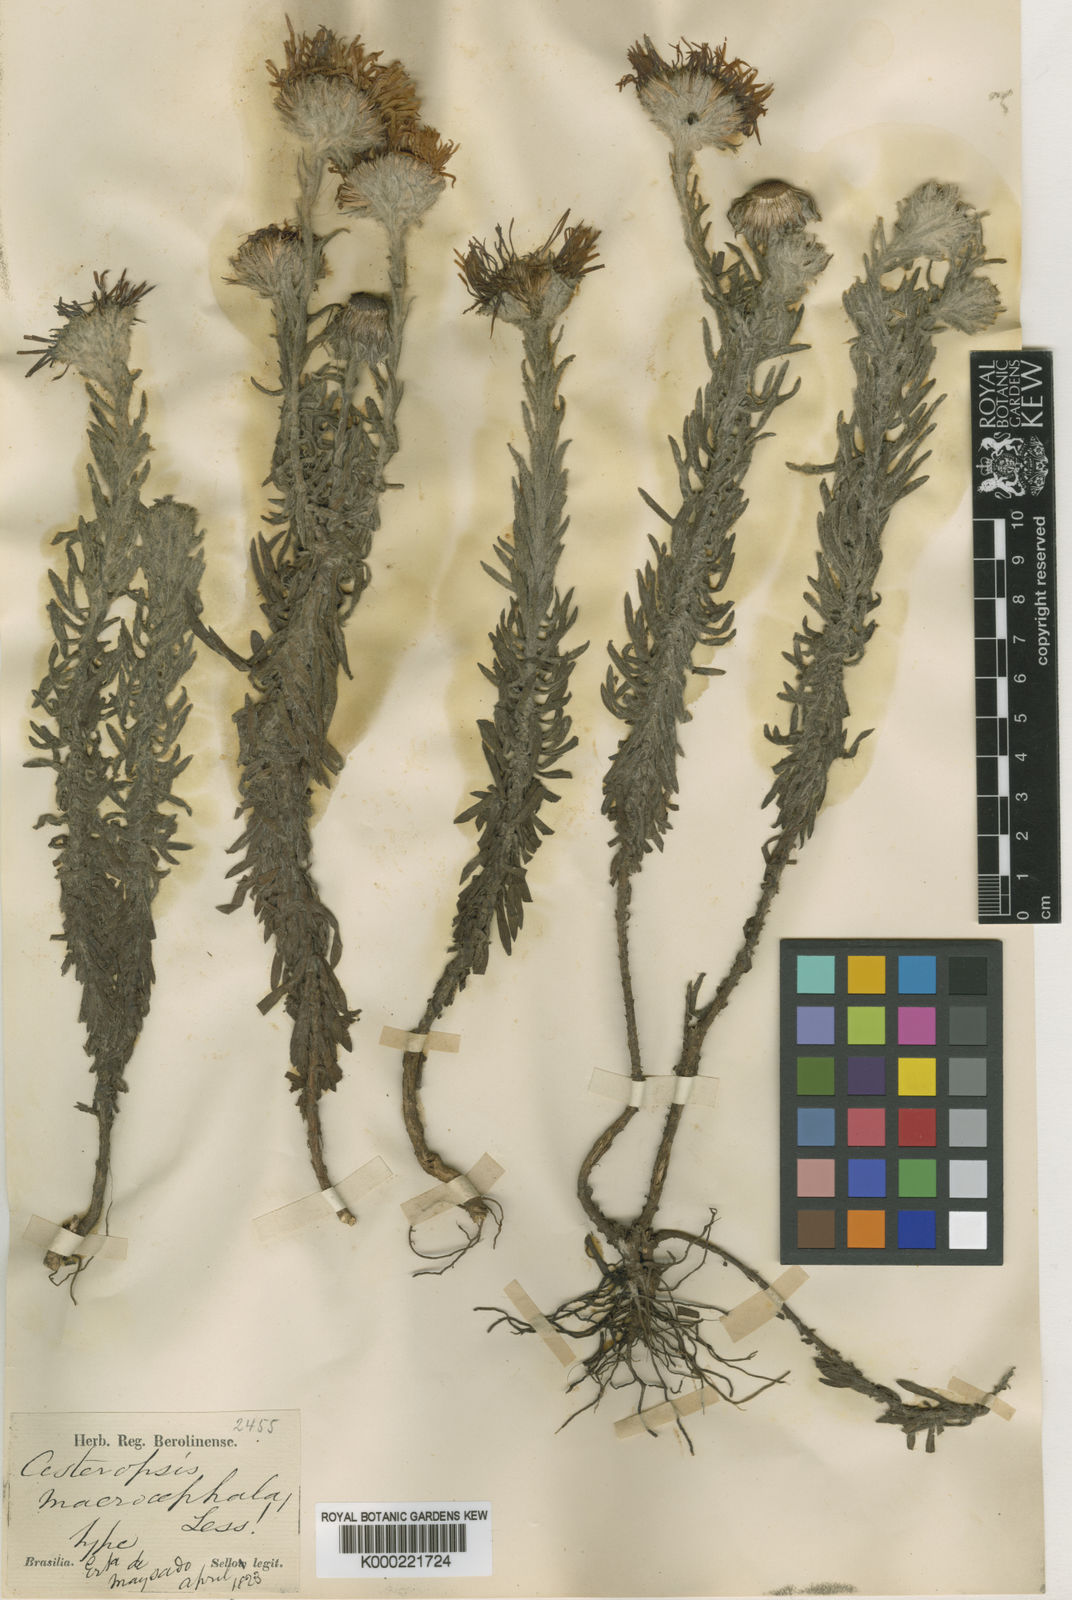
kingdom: Plantae
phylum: Tracheophyta
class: Magnoliopsida
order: Asterales
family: Asteraceae
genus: Stenachaenium
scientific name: Stenachaenium megapotamicum
